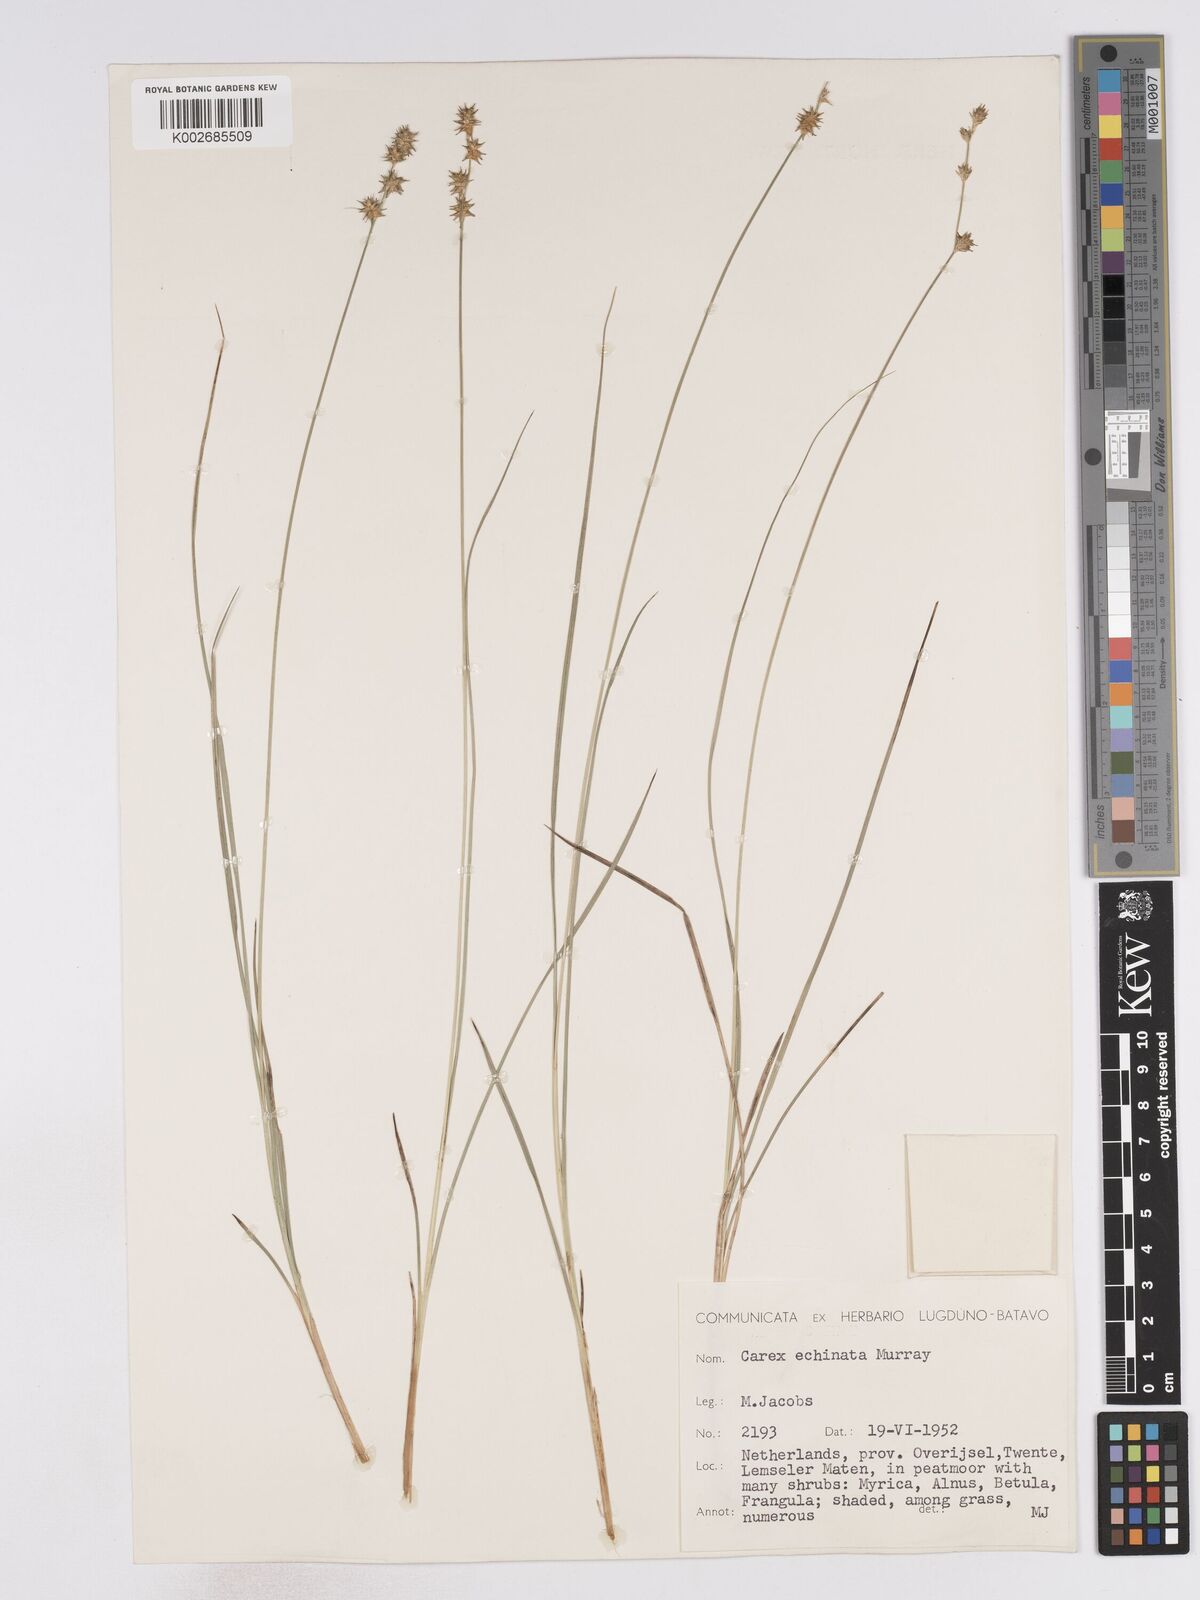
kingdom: Plantae
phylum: Tracheophyta
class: Liliopsida
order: Poales
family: Cyperaceae
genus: Carex
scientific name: Carex echinata
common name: Star sedge
